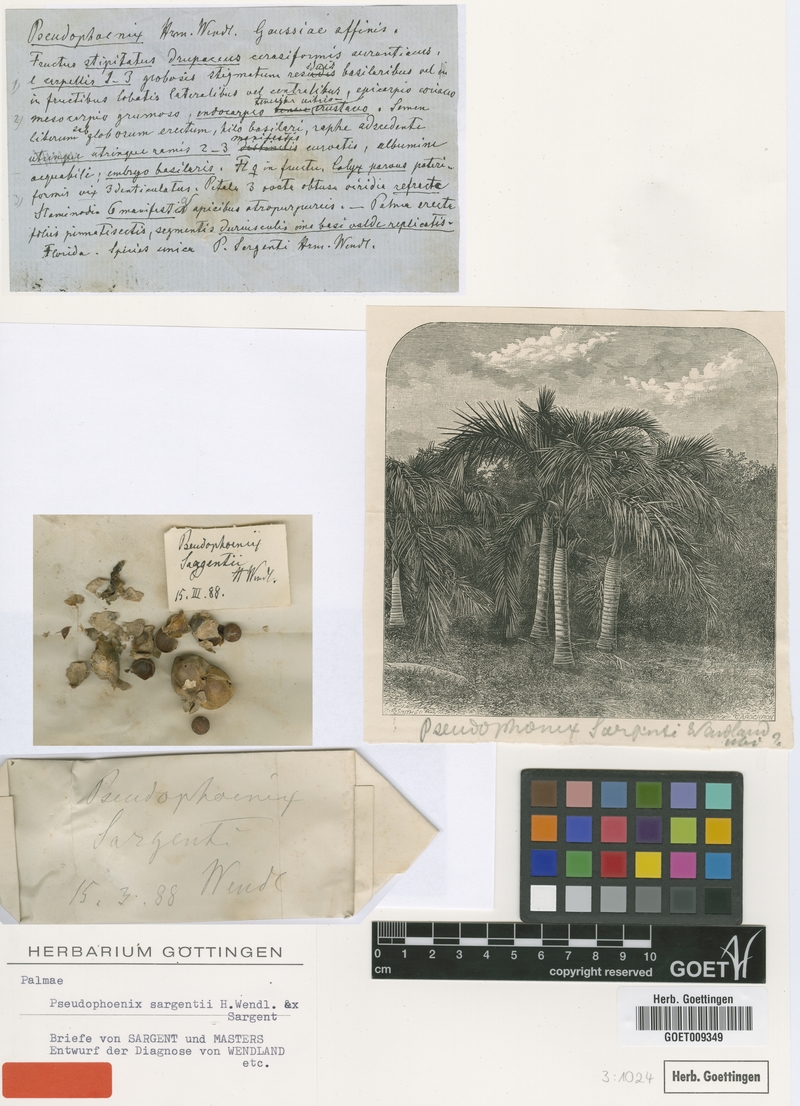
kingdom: Plantae
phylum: Tracheophyta
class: Liliopsida
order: Arecales
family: Arecaceae
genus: Pseudophoenix
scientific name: Pseudophoenix sargentii
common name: Buccaneer palm
